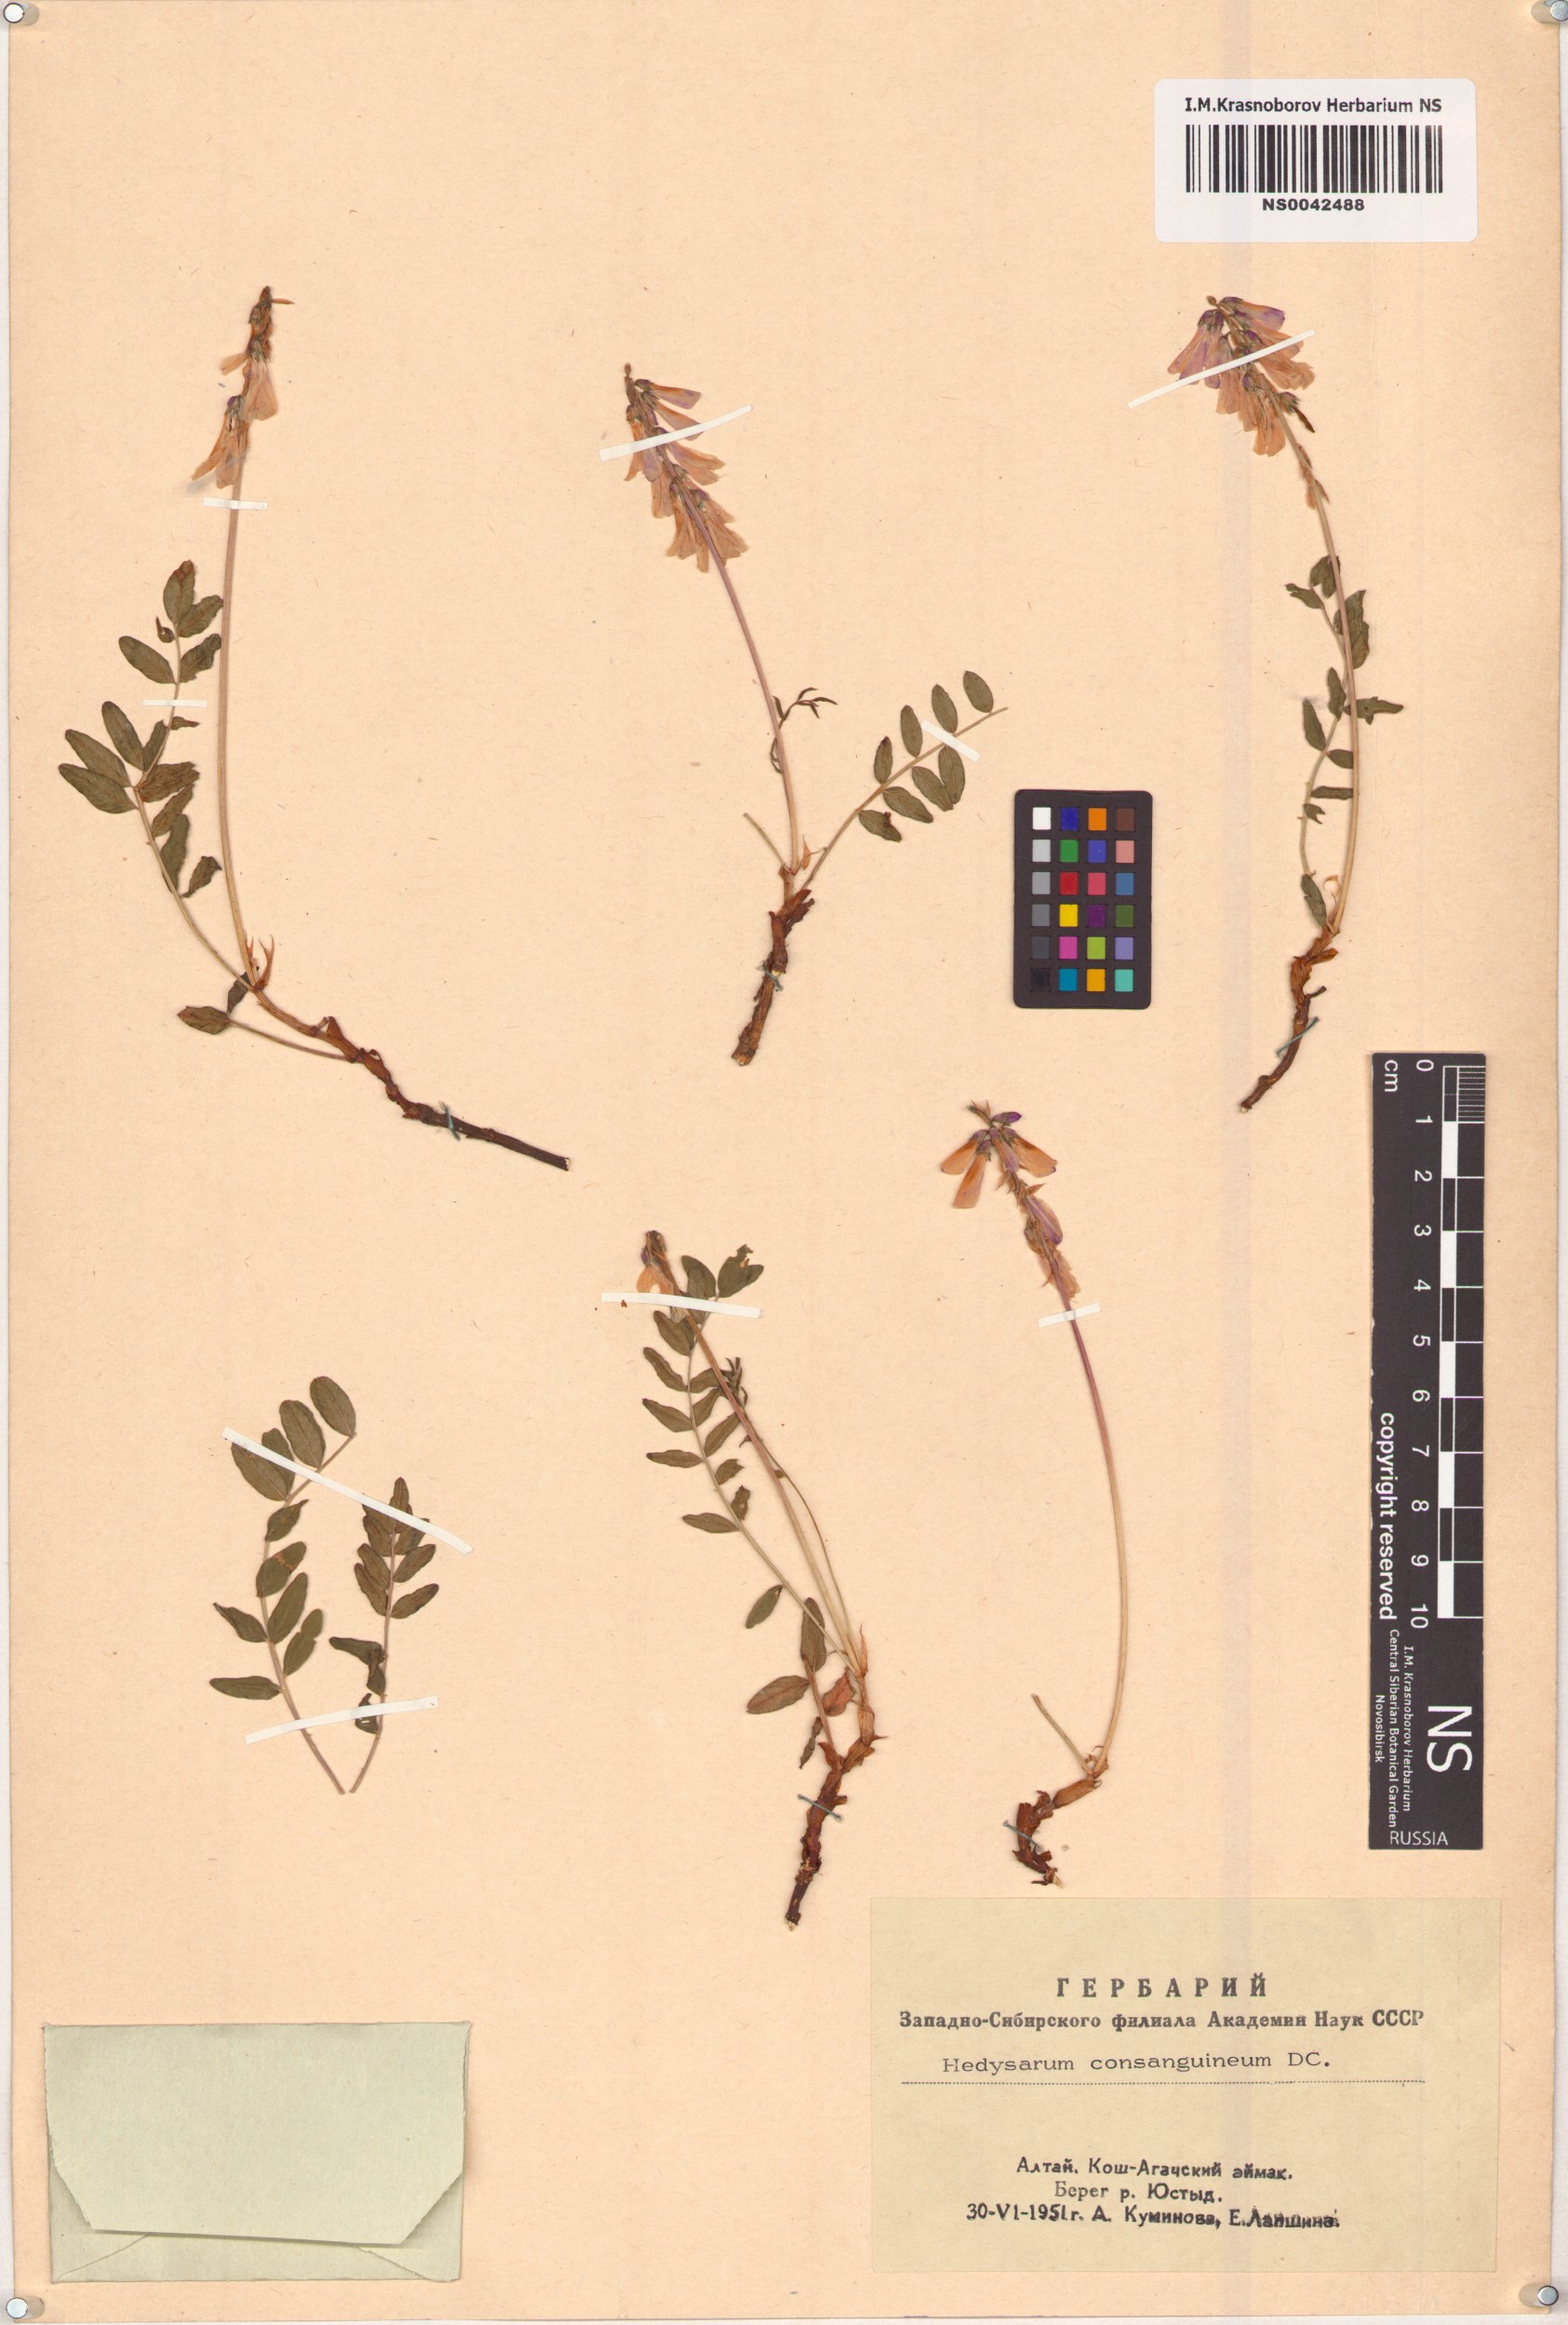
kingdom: Plantae
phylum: Tracheophyta
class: Magnoliopsida
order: Fabales
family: Fabaceae
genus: Hedysarum
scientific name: Hedysarum consanguineum
